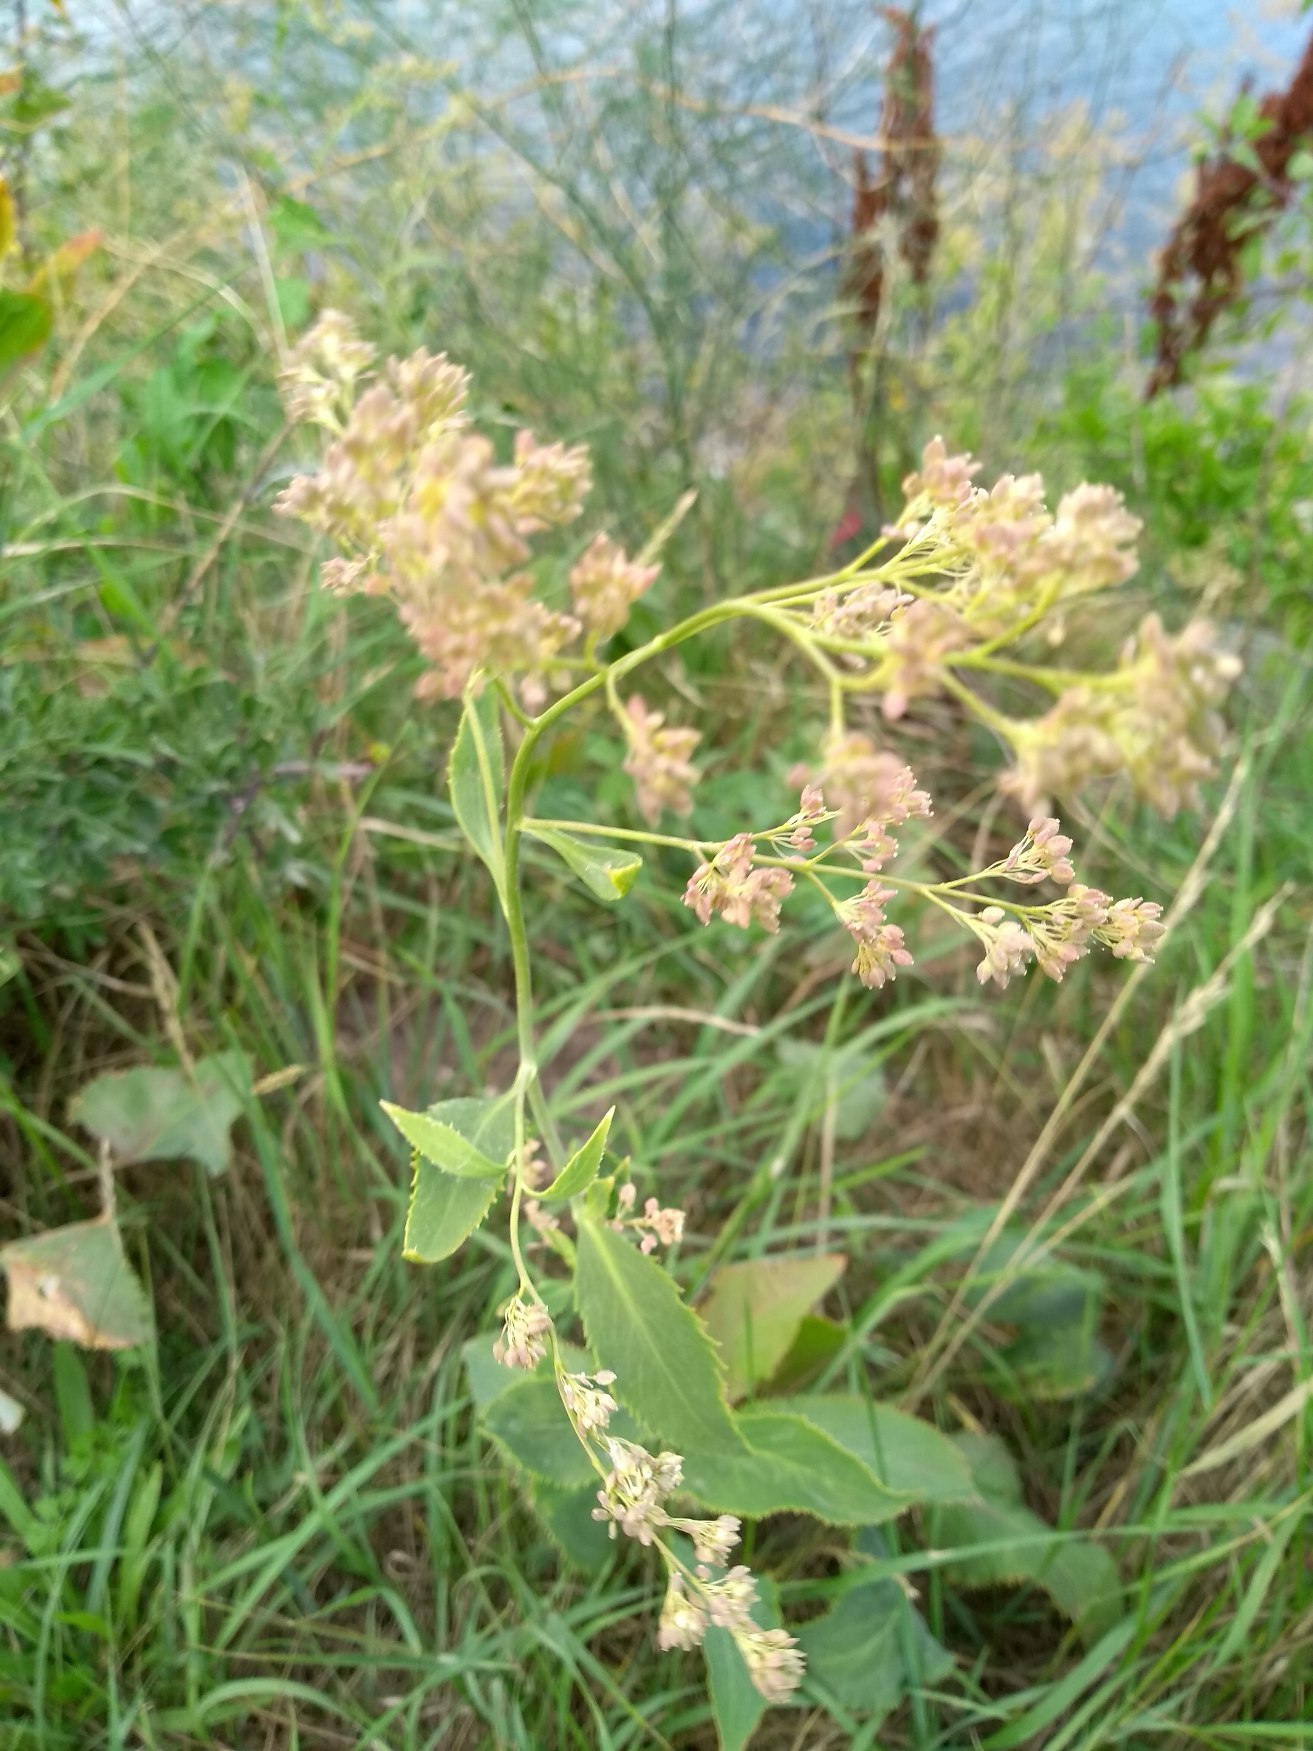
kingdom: Plantae
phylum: Tracheophyta
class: Magnoliopsida
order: Brassicales
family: Brassicaceae
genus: Lepidium
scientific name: Lepidium latifolium
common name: Strand-karse
